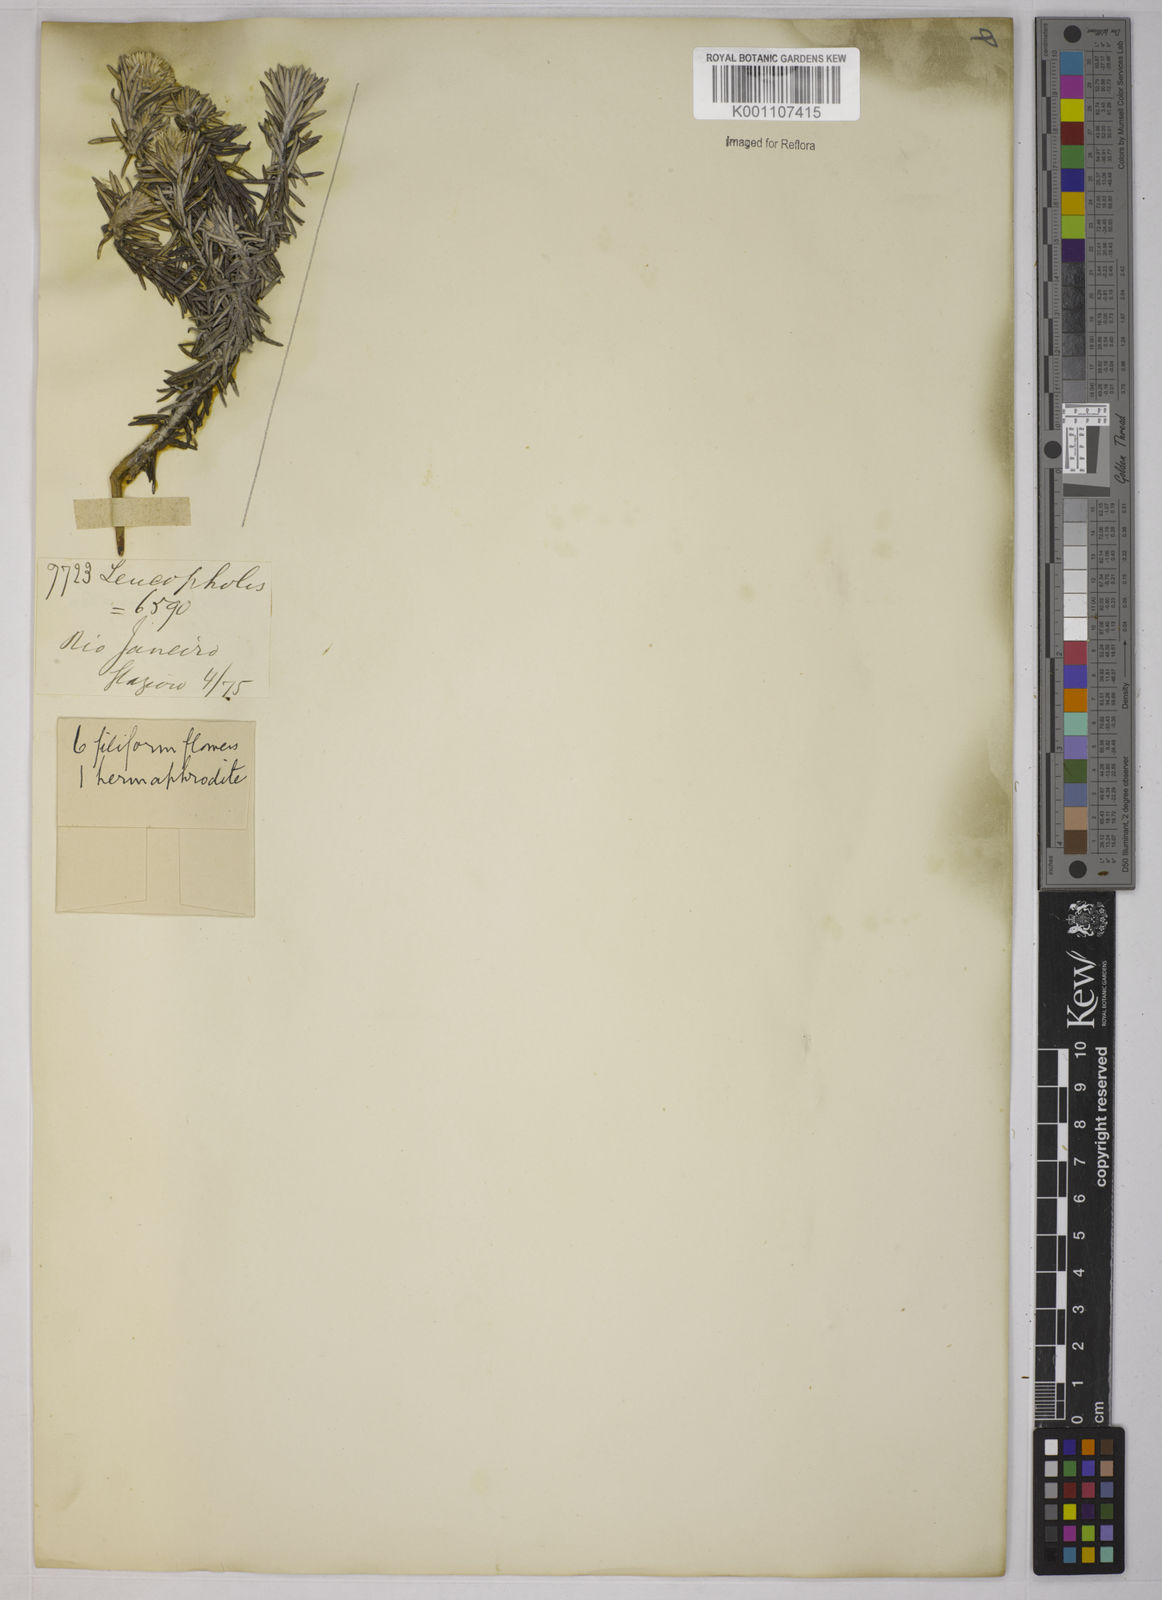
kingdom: Plantae
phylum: Tracheophyta
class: Magnoliopsida
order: Asterales
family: Asteraceae
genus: Chionolaena
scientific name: Chionolaena capitata
